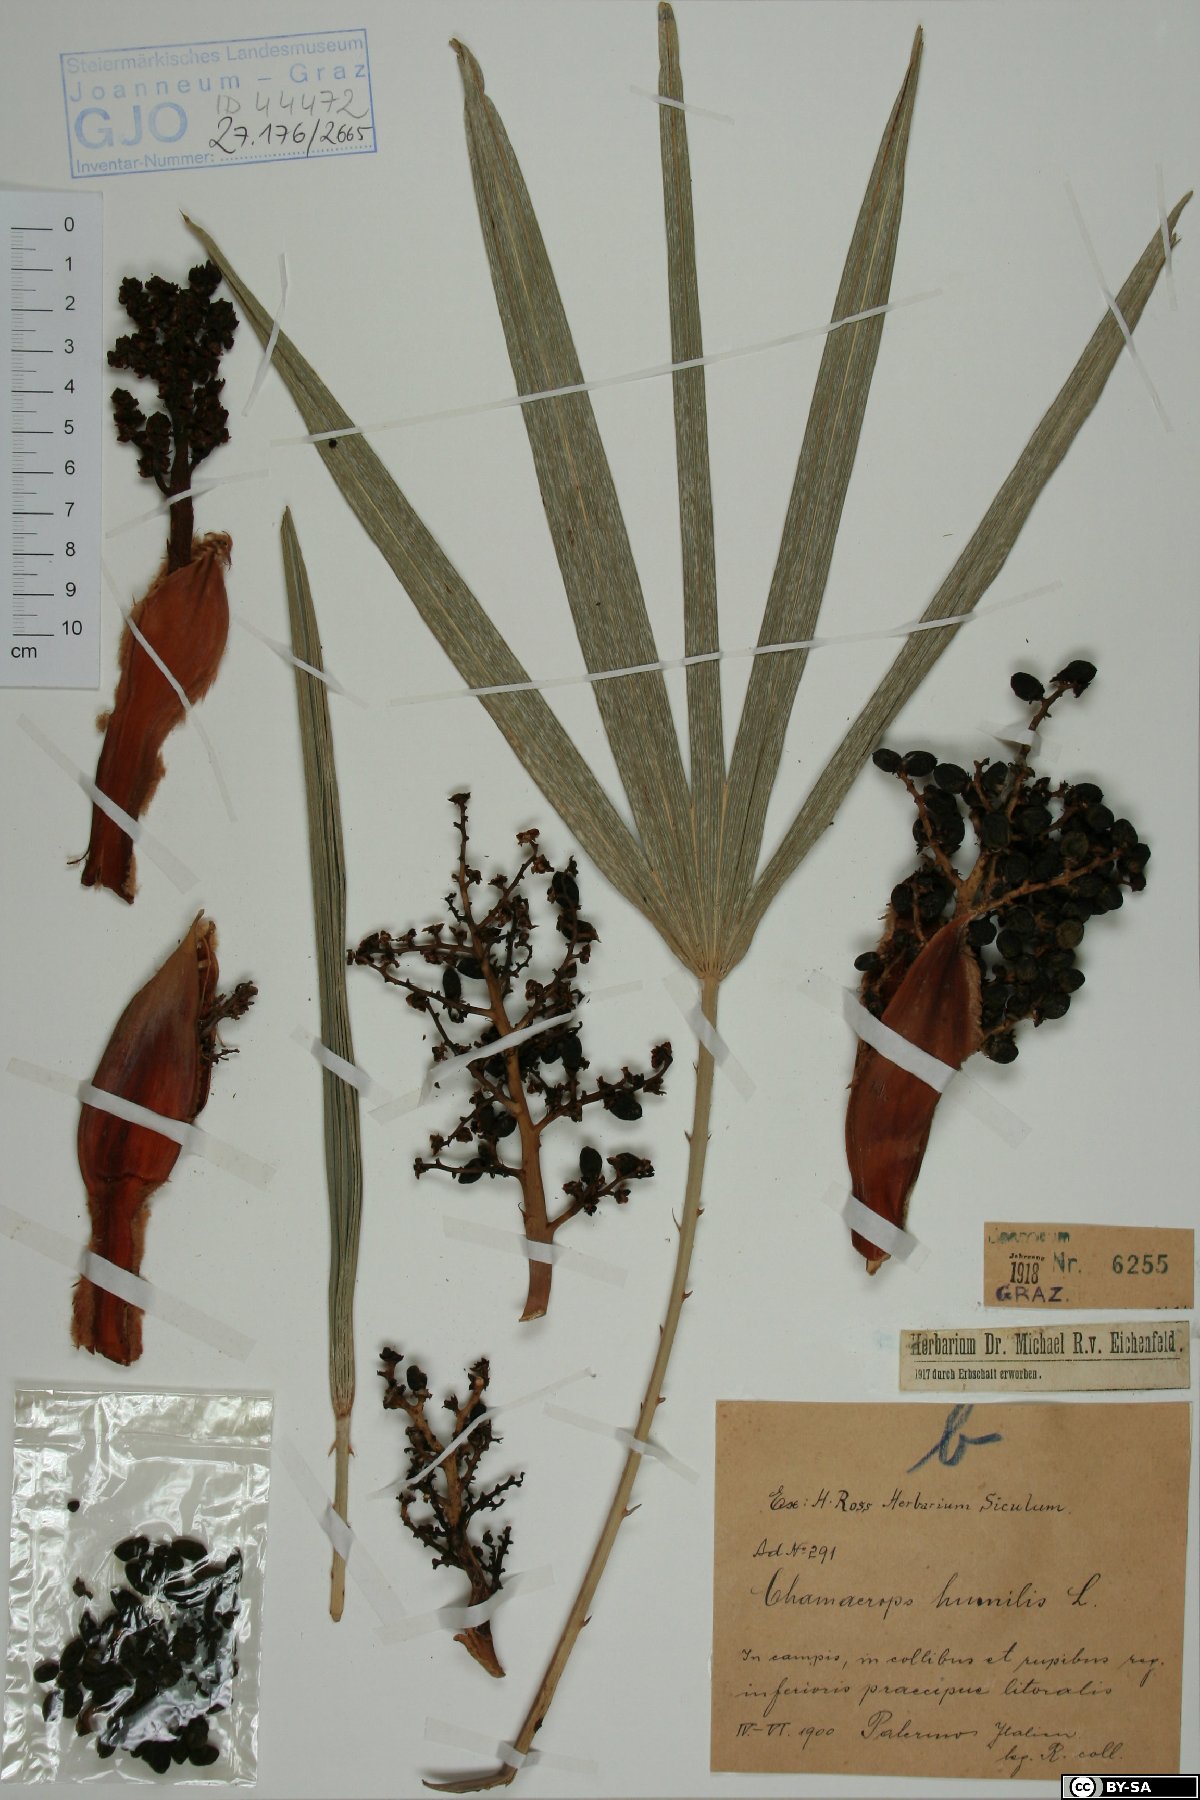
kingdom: Plantae
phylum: Tracheophyta
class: Liliopsida
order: Arecales
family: Arecaceae
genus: Chamaerops
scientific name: Chamaerops humilis
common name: Dwarf fan palm
